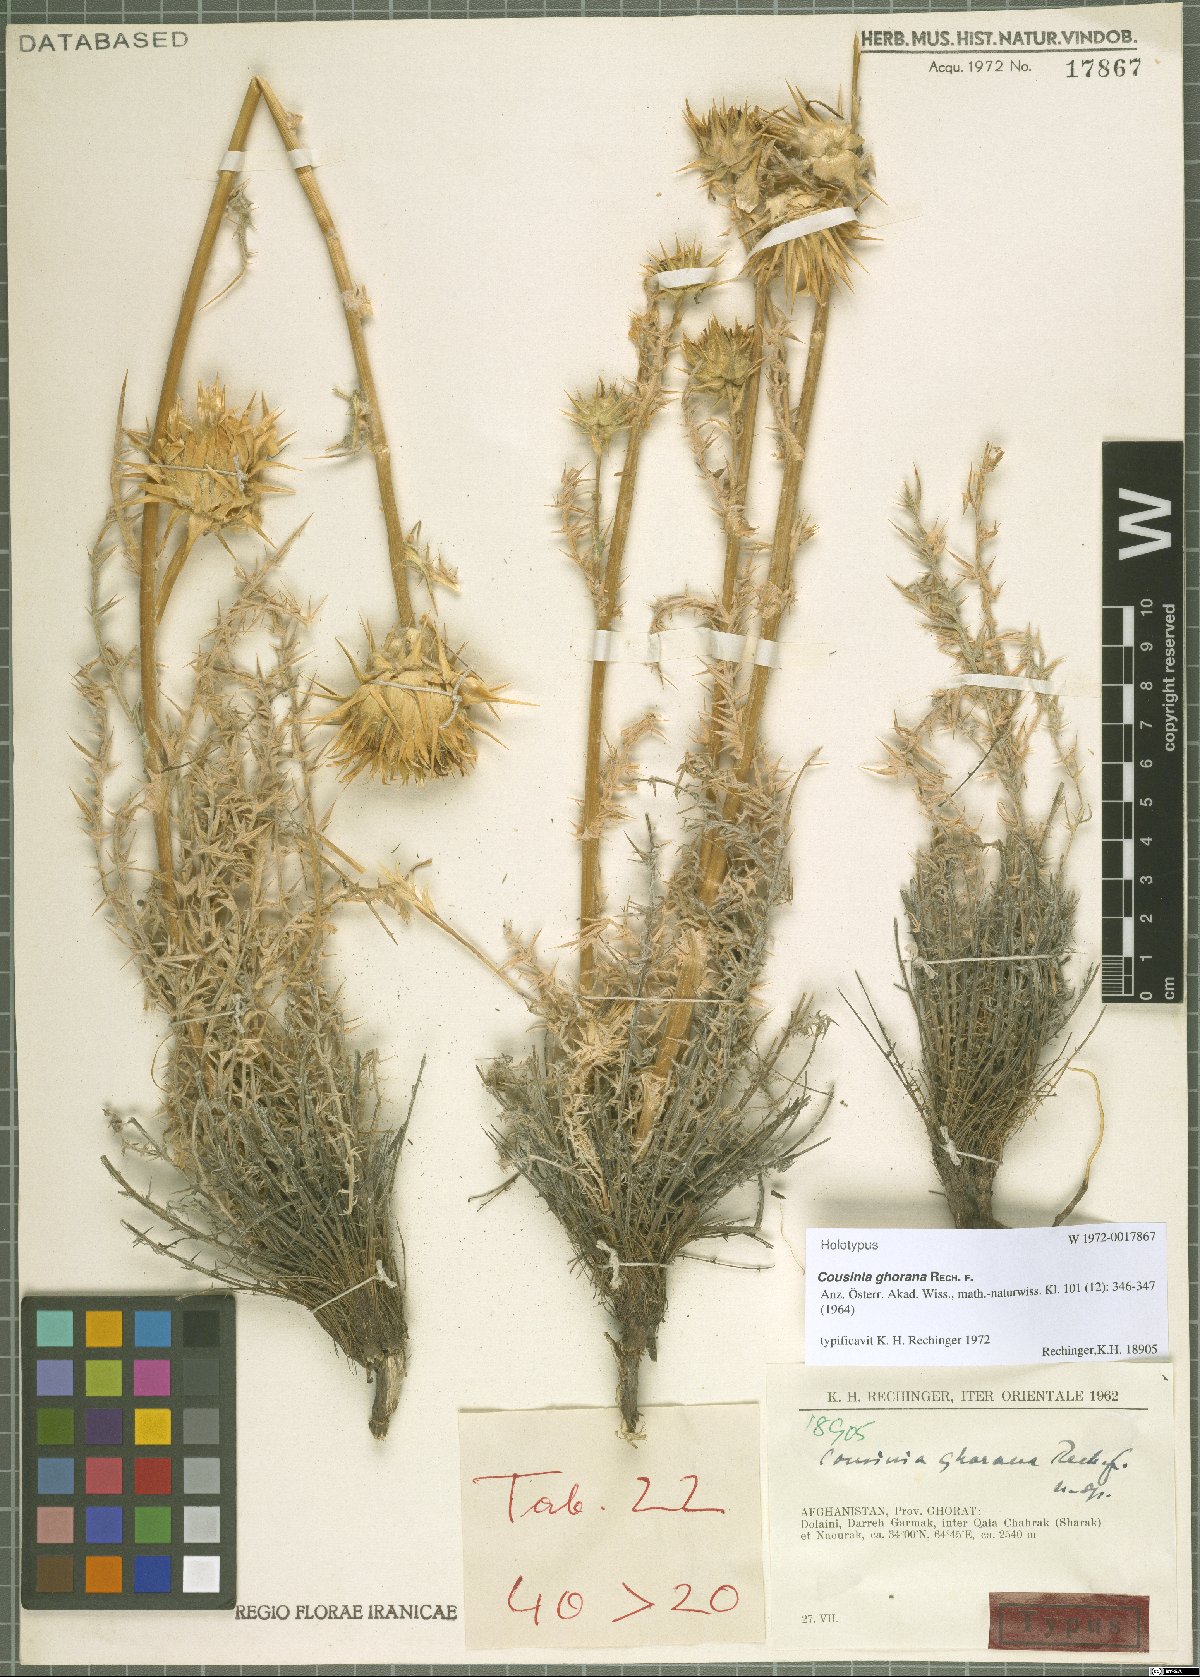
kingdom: Plantae
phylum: Tracheophyta
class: Magnoliopsida
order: Asterales
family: Asteraceae
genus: Cousinia
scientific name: Cousinia ghorana
